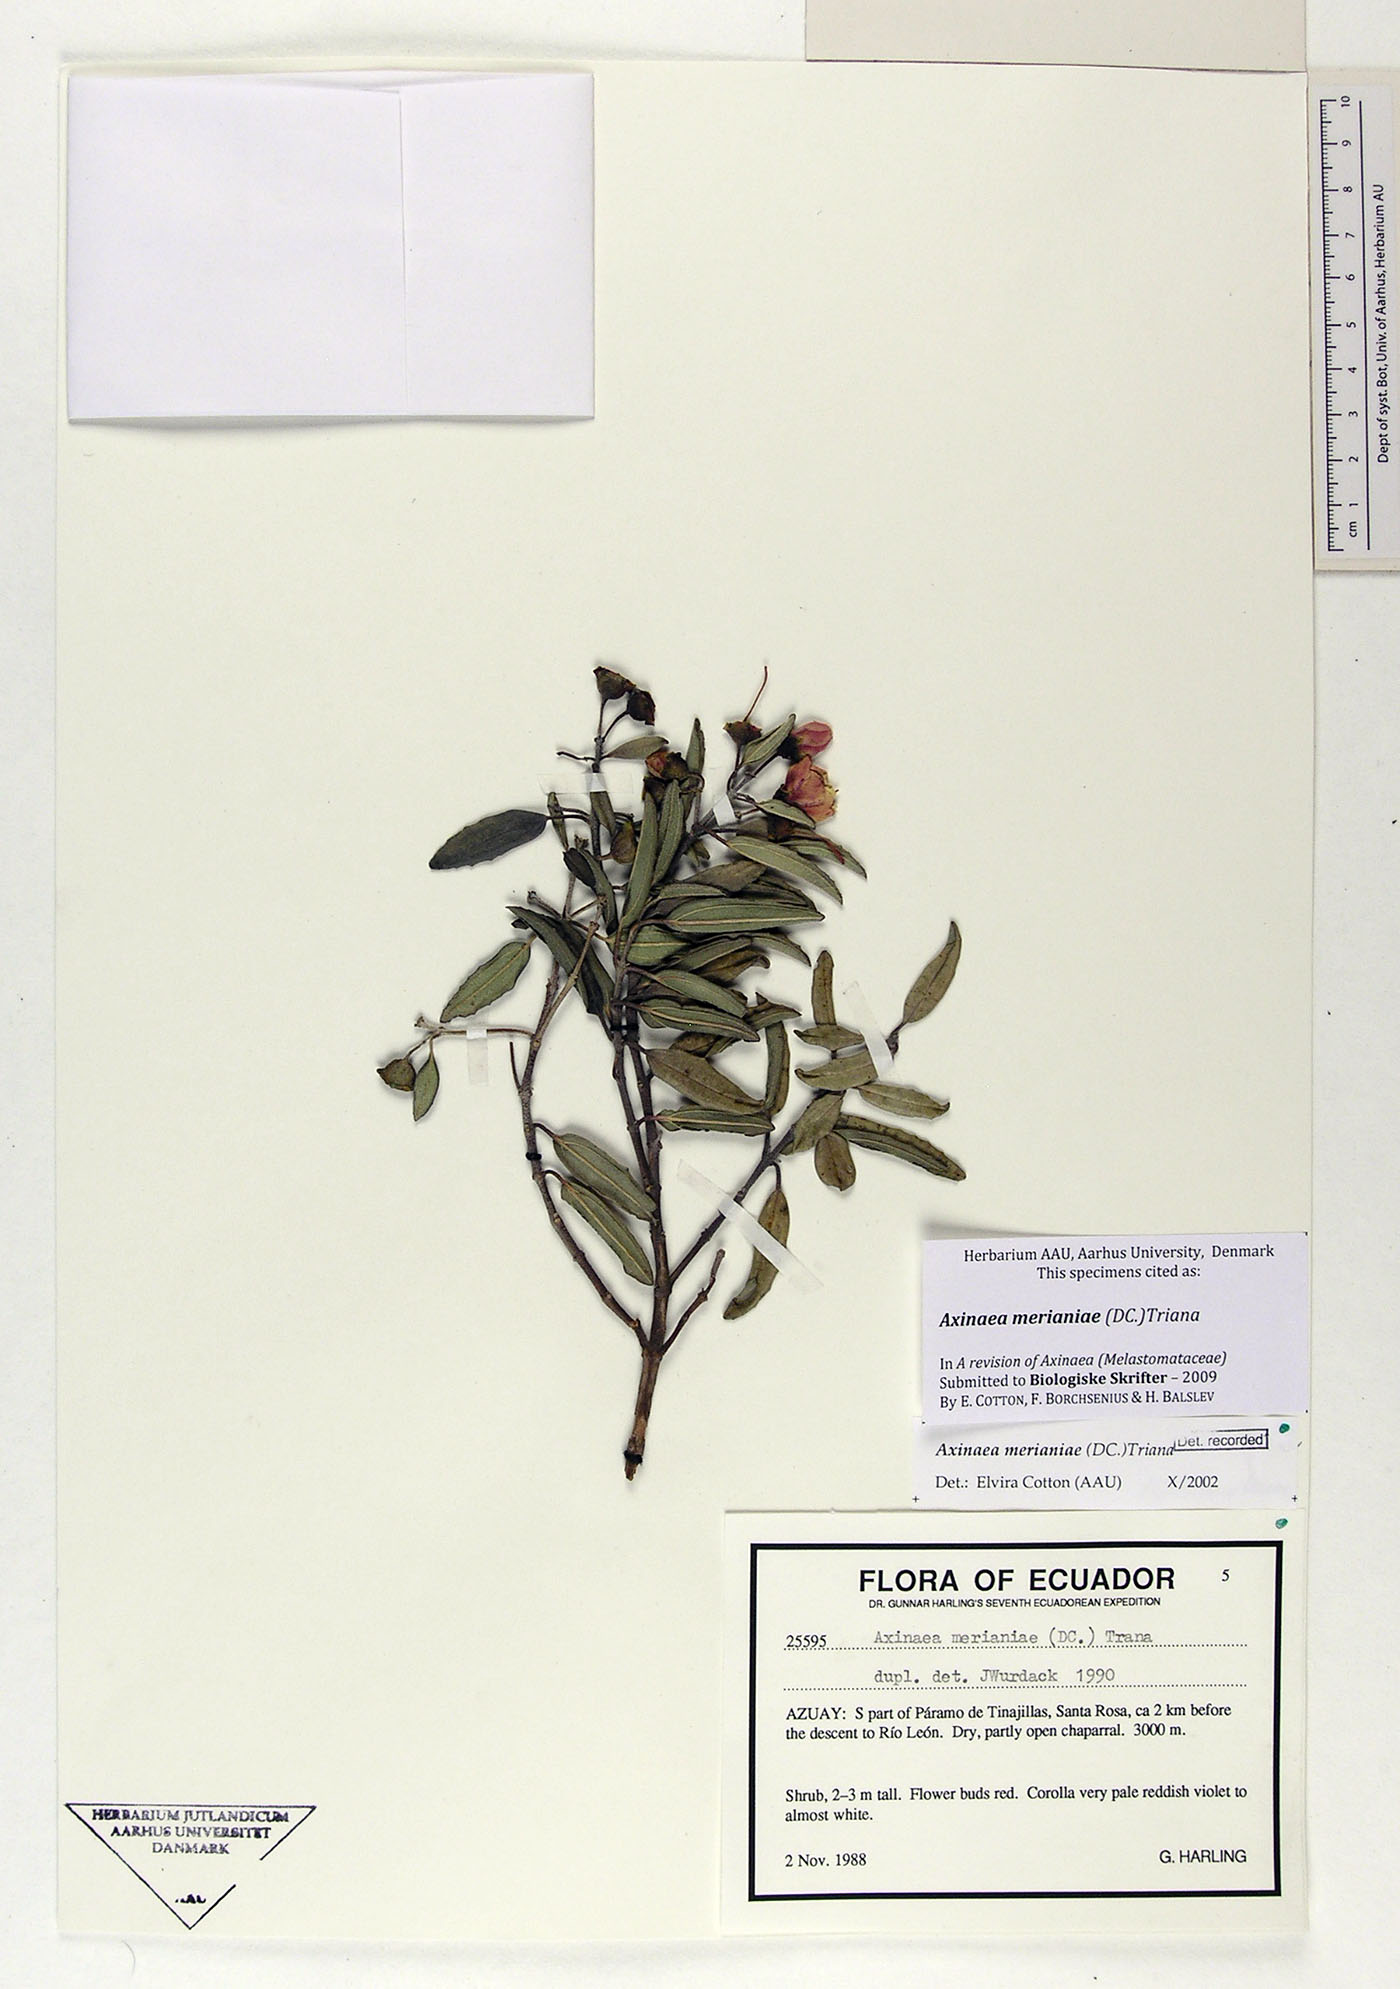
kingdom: Plantae
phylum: Tracheophyta
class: Magnoliopsida
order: Myrtales
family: Melastomataceae
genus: Axinaea
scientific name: Axinaea merianiae
